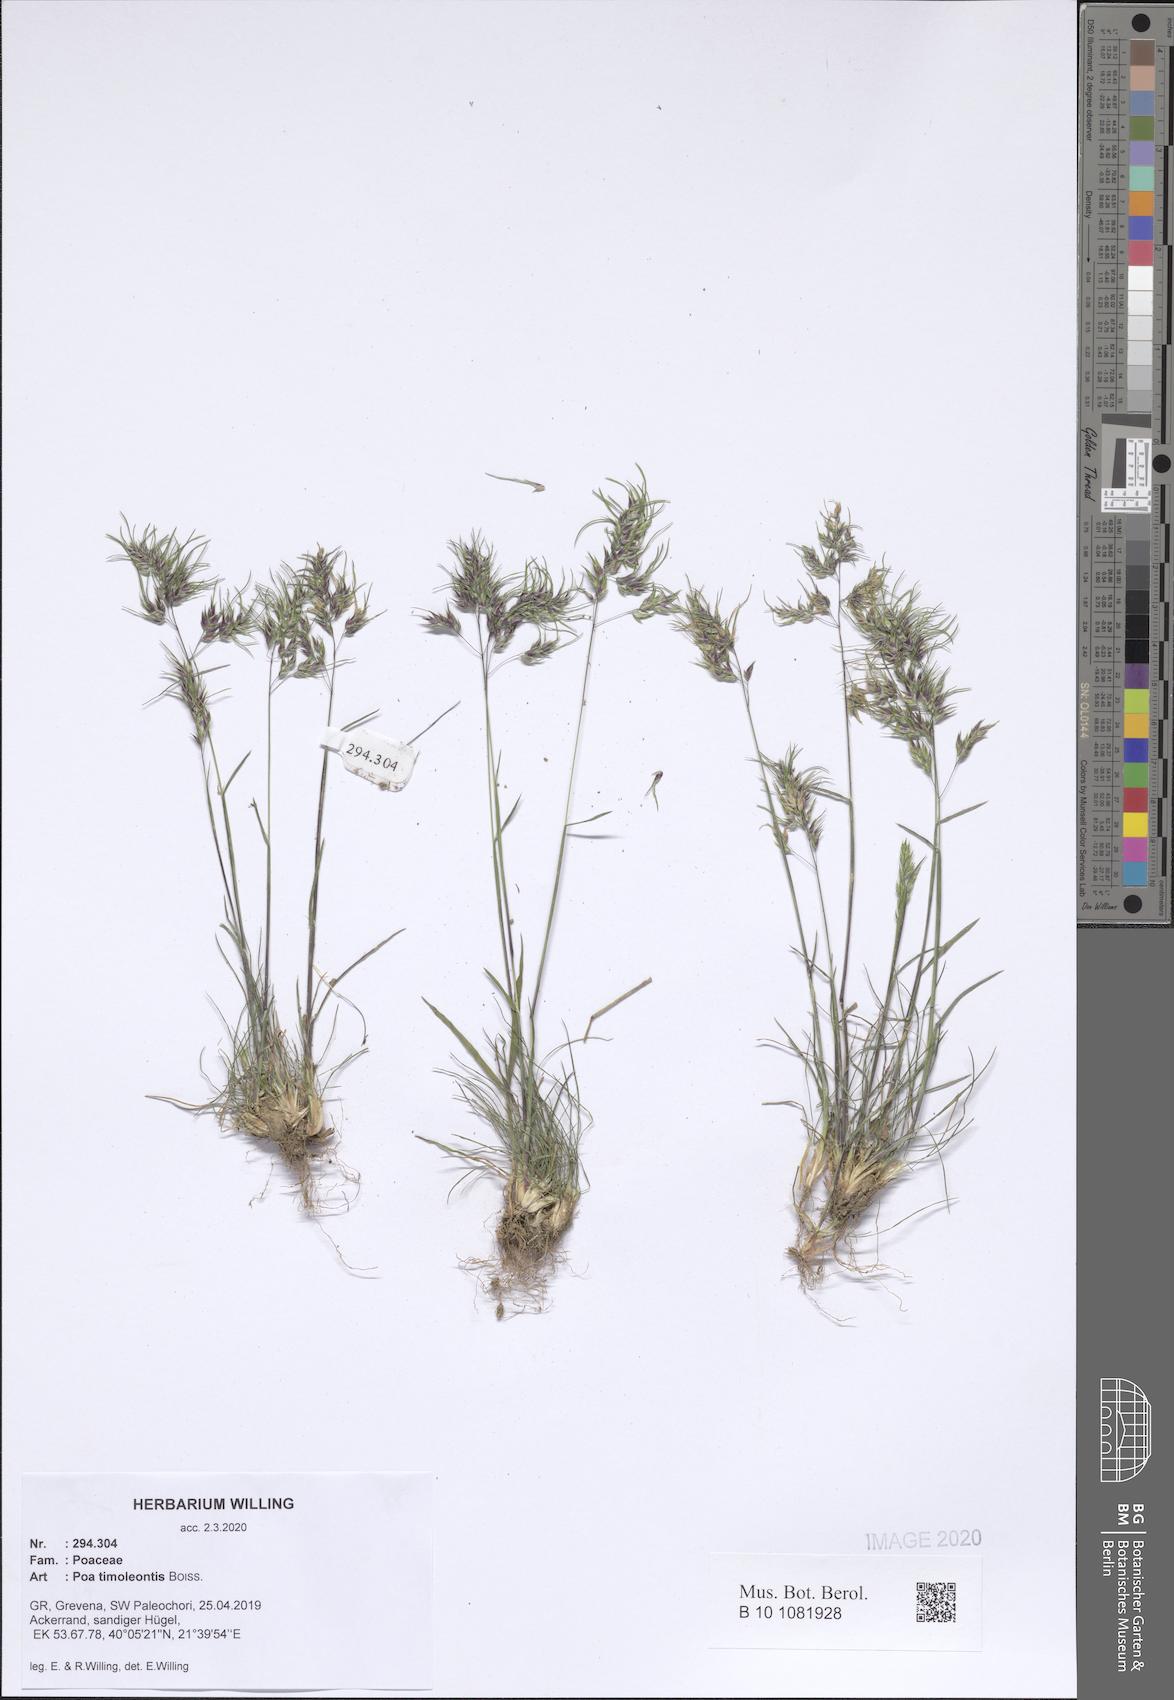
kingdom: Plantae
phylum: Tracheophyta
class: Liliopsida
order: Poales
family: Poaceae
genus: Poa
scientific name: Poa timoleontis
